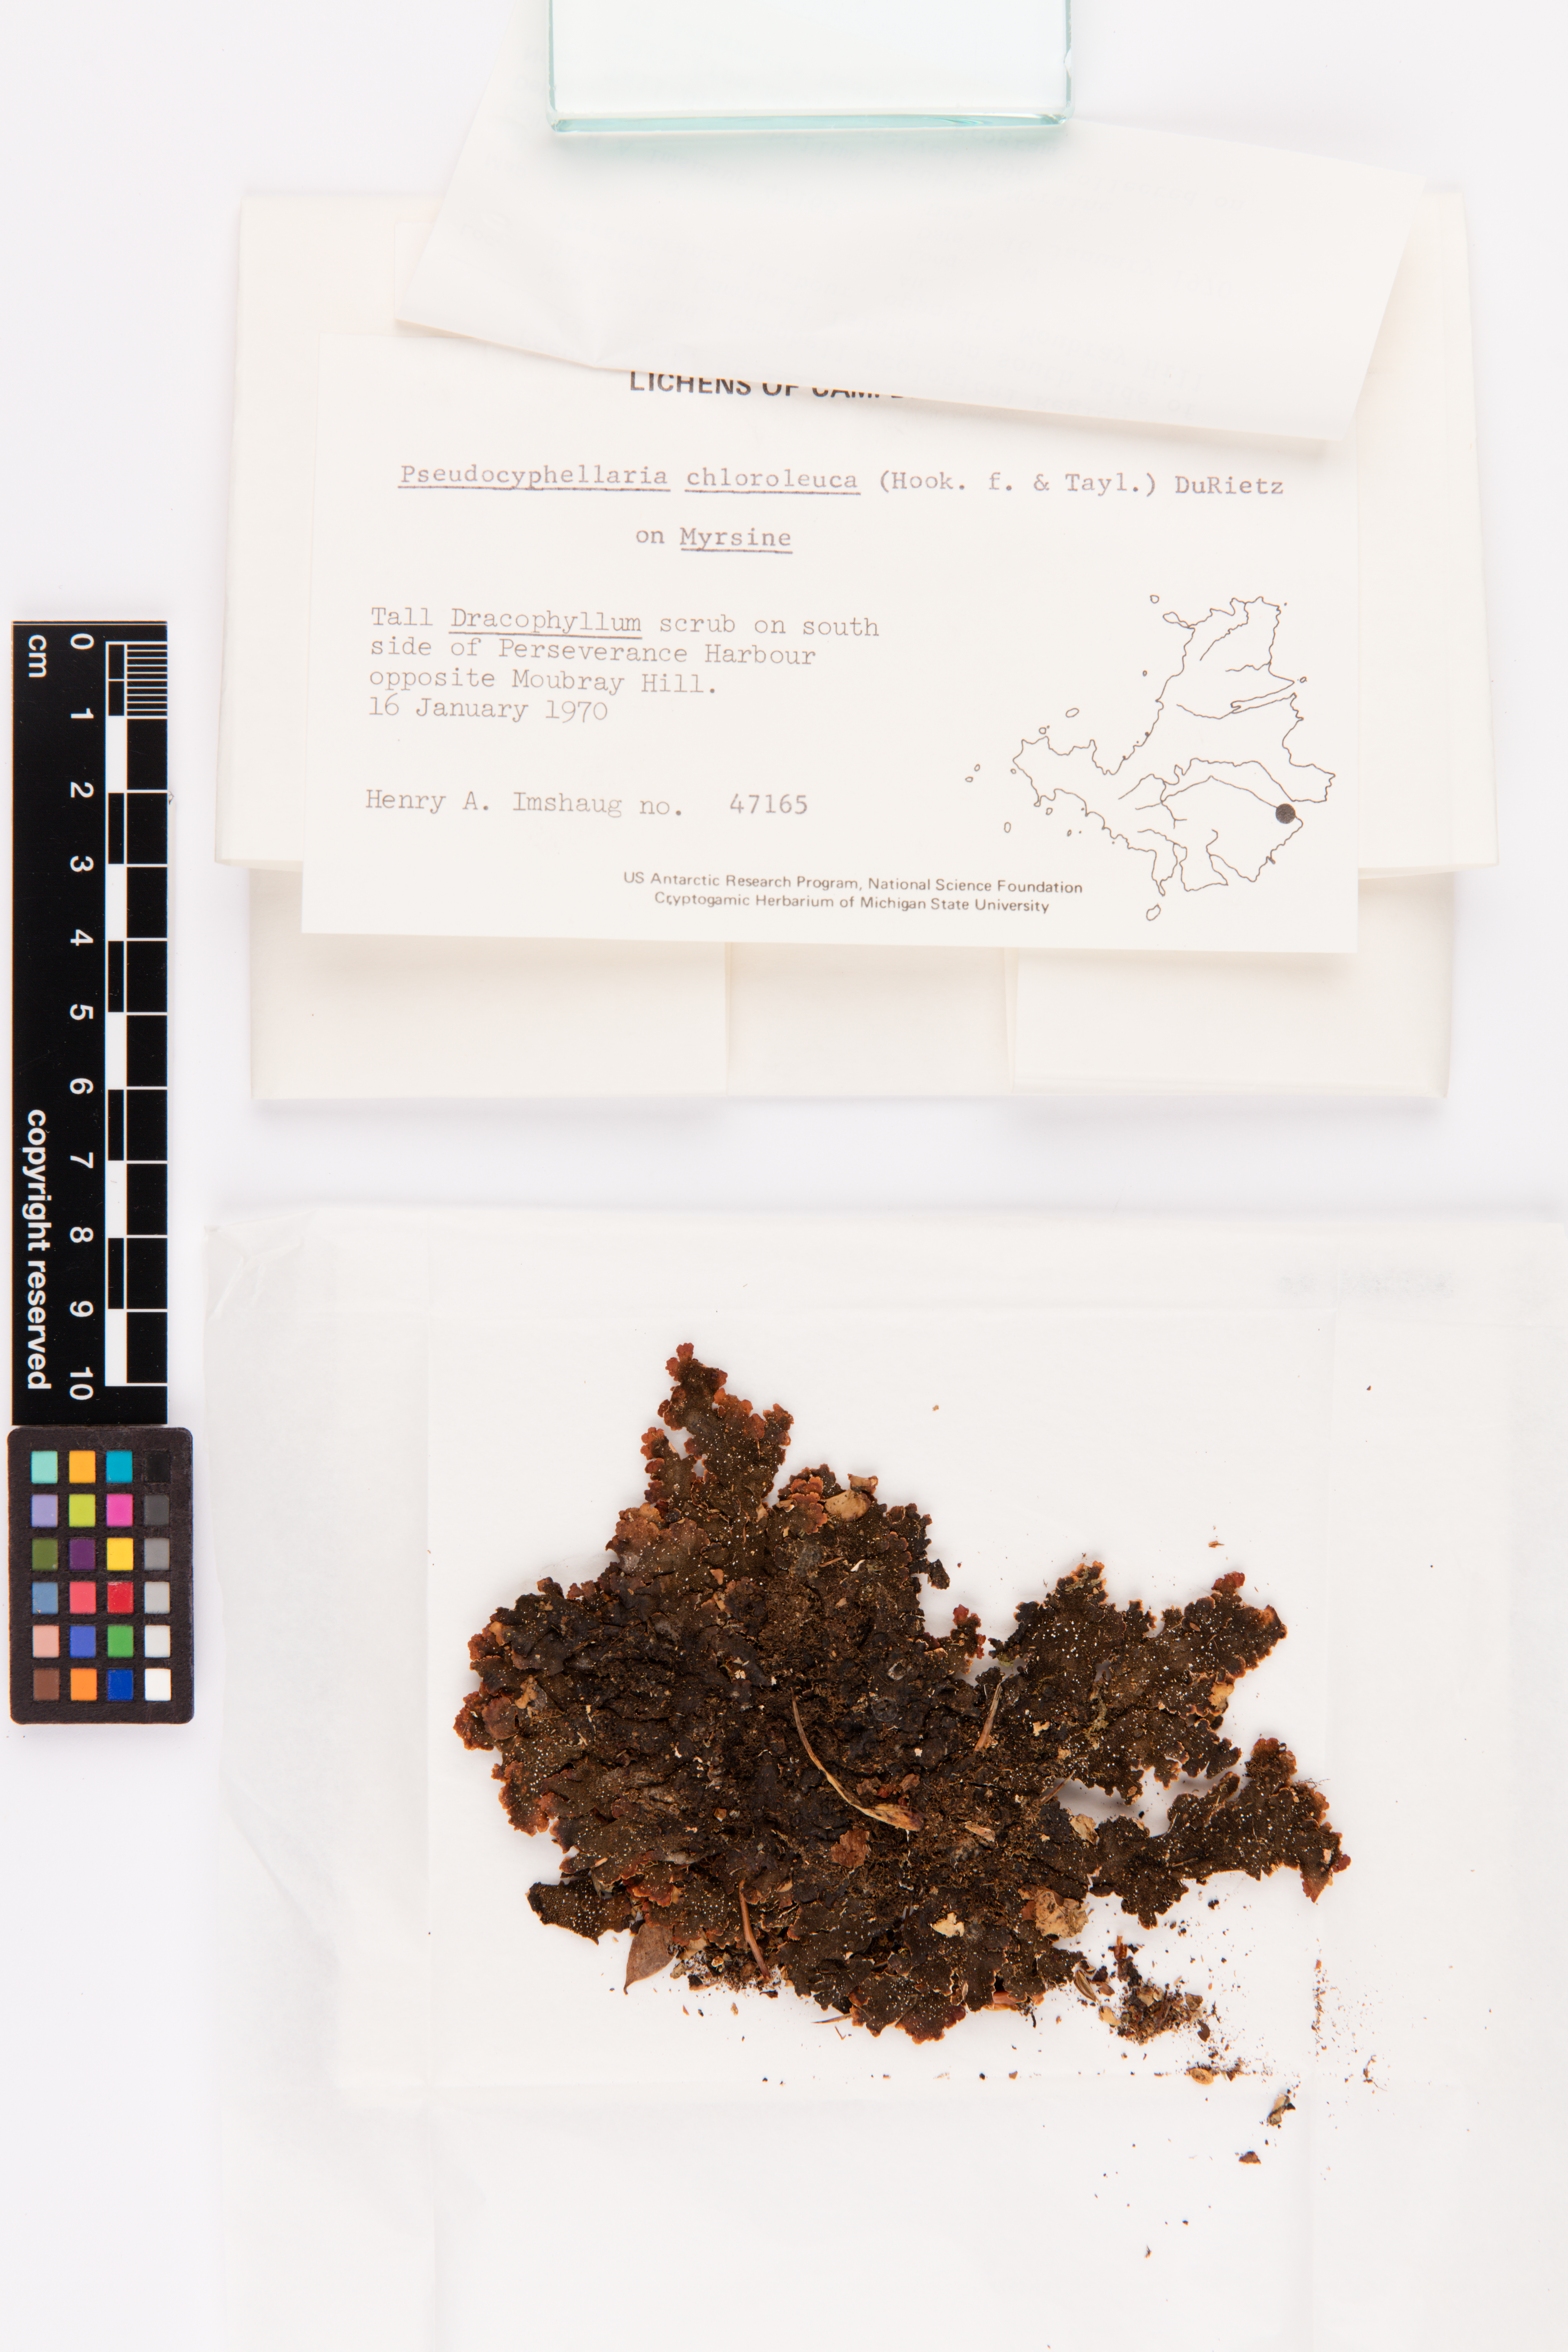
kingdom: Fungi
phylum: Ascomycota
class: Lecanoromycetes
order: Peltigerales
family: Lobariaceae
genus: Pseudocyphellaria
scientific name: Pseudocyphellaria chloroleuca
